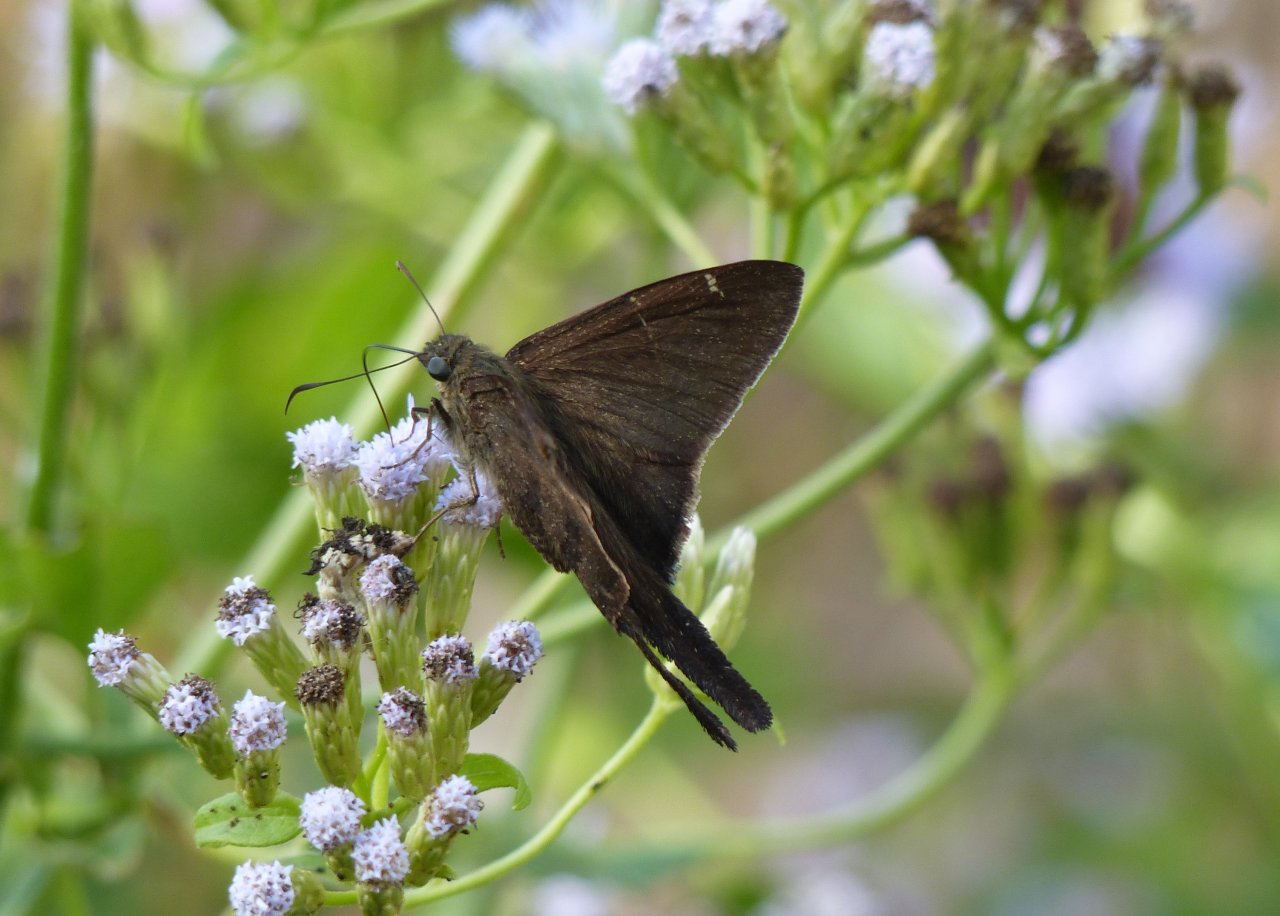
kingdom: Animalia
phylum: Arthropoda
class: Insecta
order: Lepidoptera
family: Hesperiidae
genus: Urbanus
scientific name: Urbanus procne
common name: Brown Longtail
